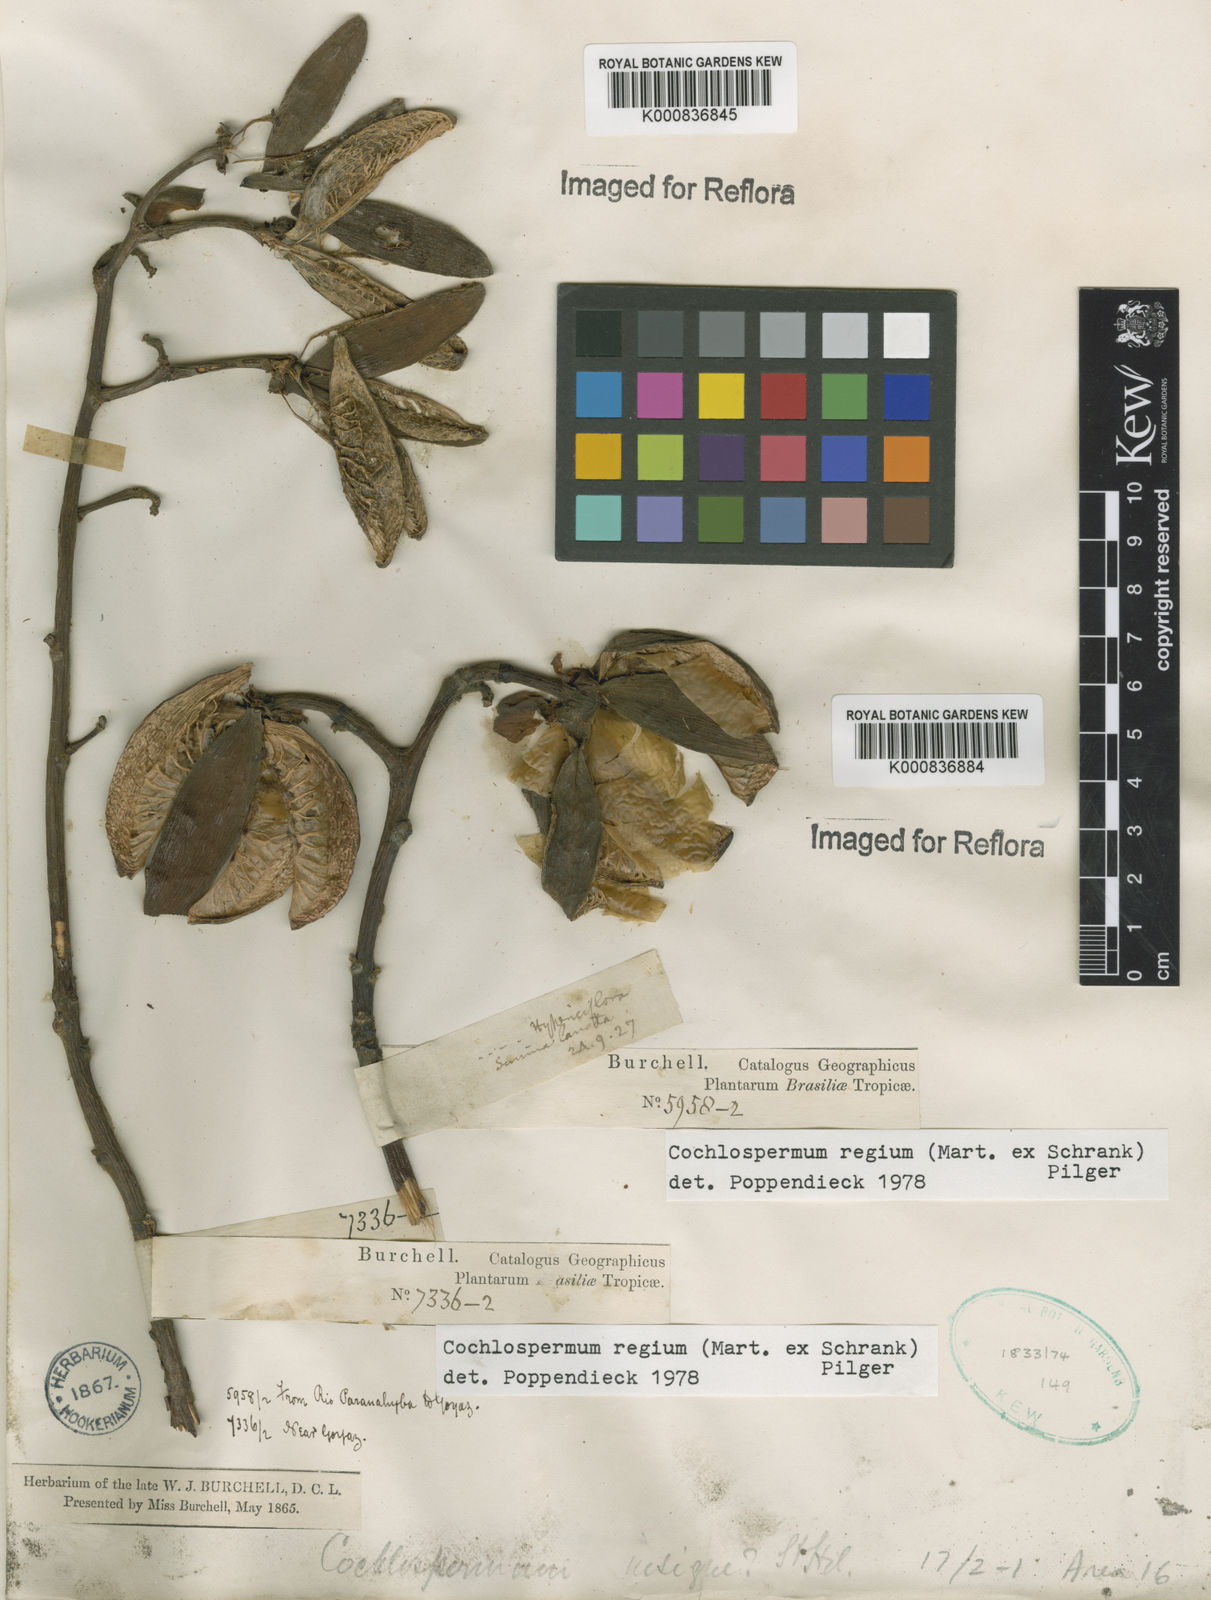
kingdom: Plantae
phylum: Tracheophyta
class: Magnoliopsida
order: Malvales
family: Cochlospermaceae
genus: Cochlospermum
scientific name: Cochlospermum regium
